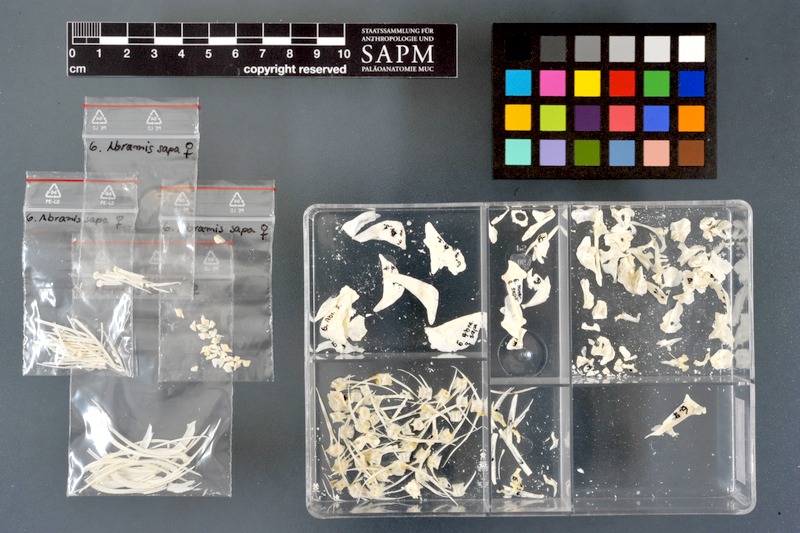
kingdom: Animalia
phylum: Chordata
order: Cypriniformes
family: Cyprinidae
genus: Ballerus
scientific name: Ballerus sapa
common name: White-eye bream
